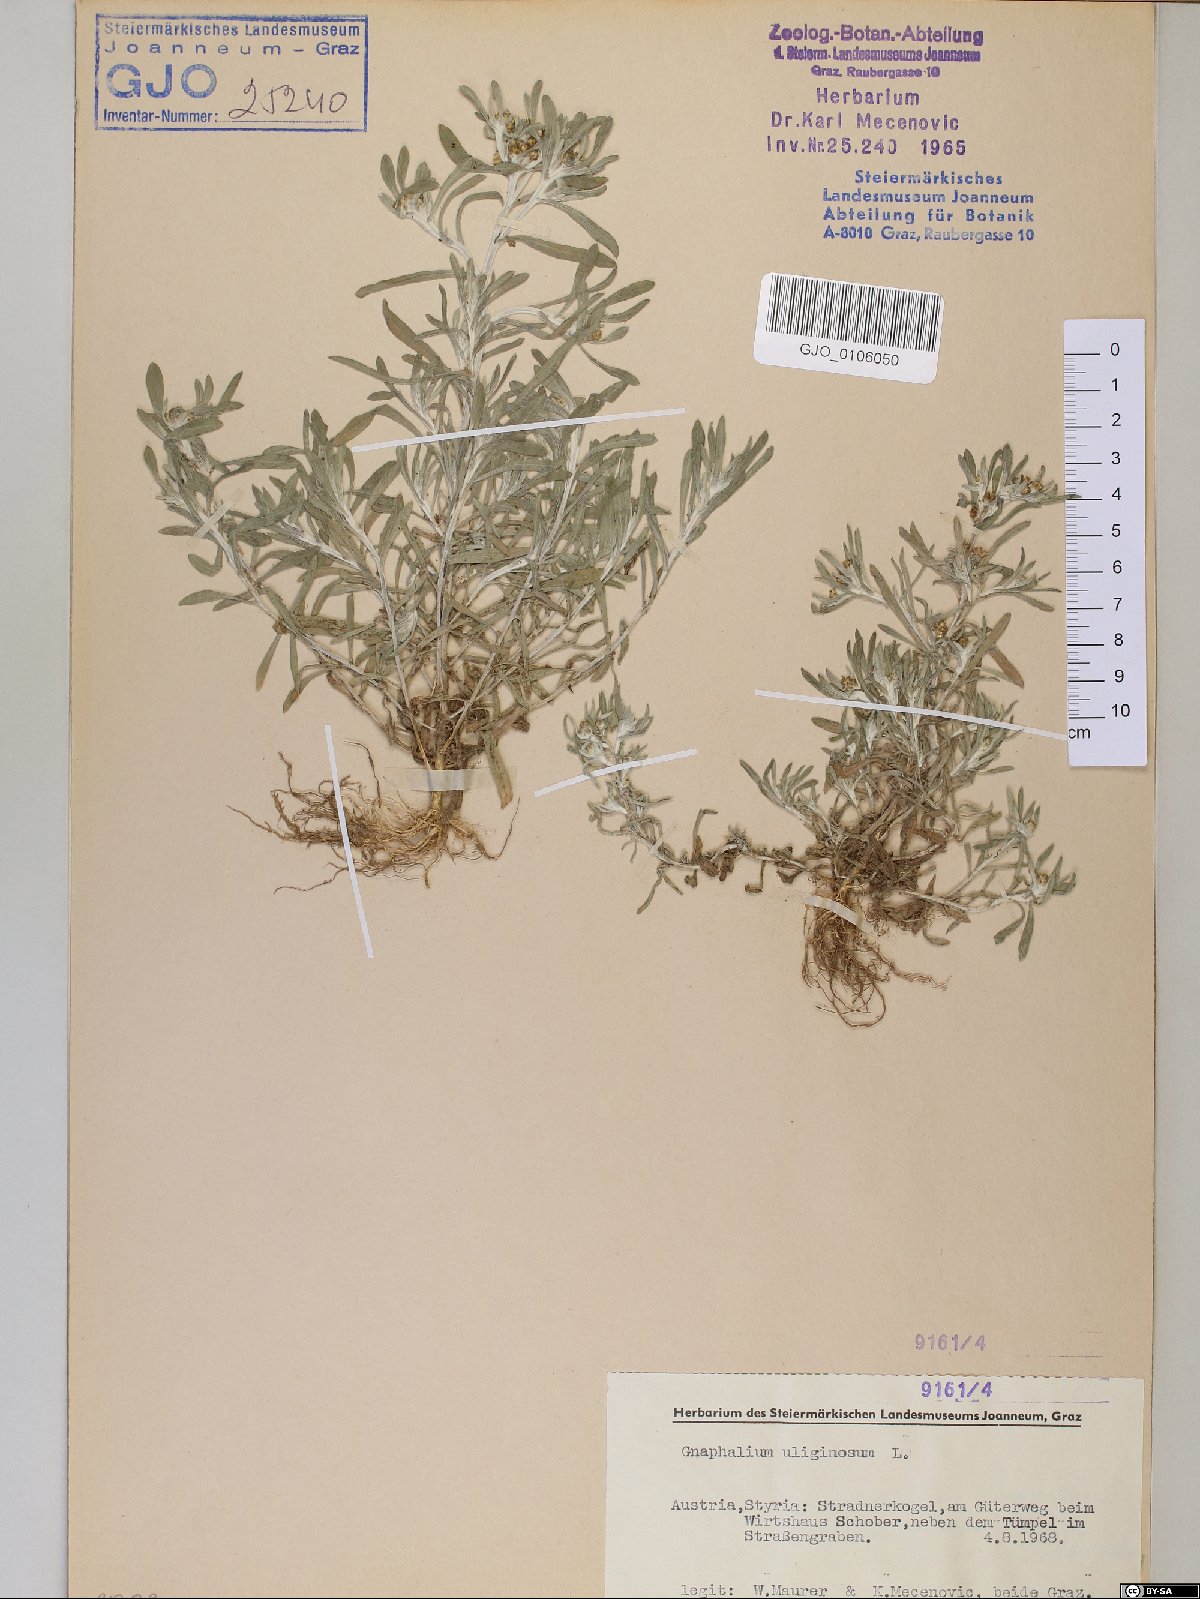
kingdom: Plantae
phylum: Tracheophyta
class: Magnoliopsida
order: Asterales
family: Asteraceae
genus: Gnaphalium
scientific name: Gnaphalium uliginosum
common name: Marsh cudweed
